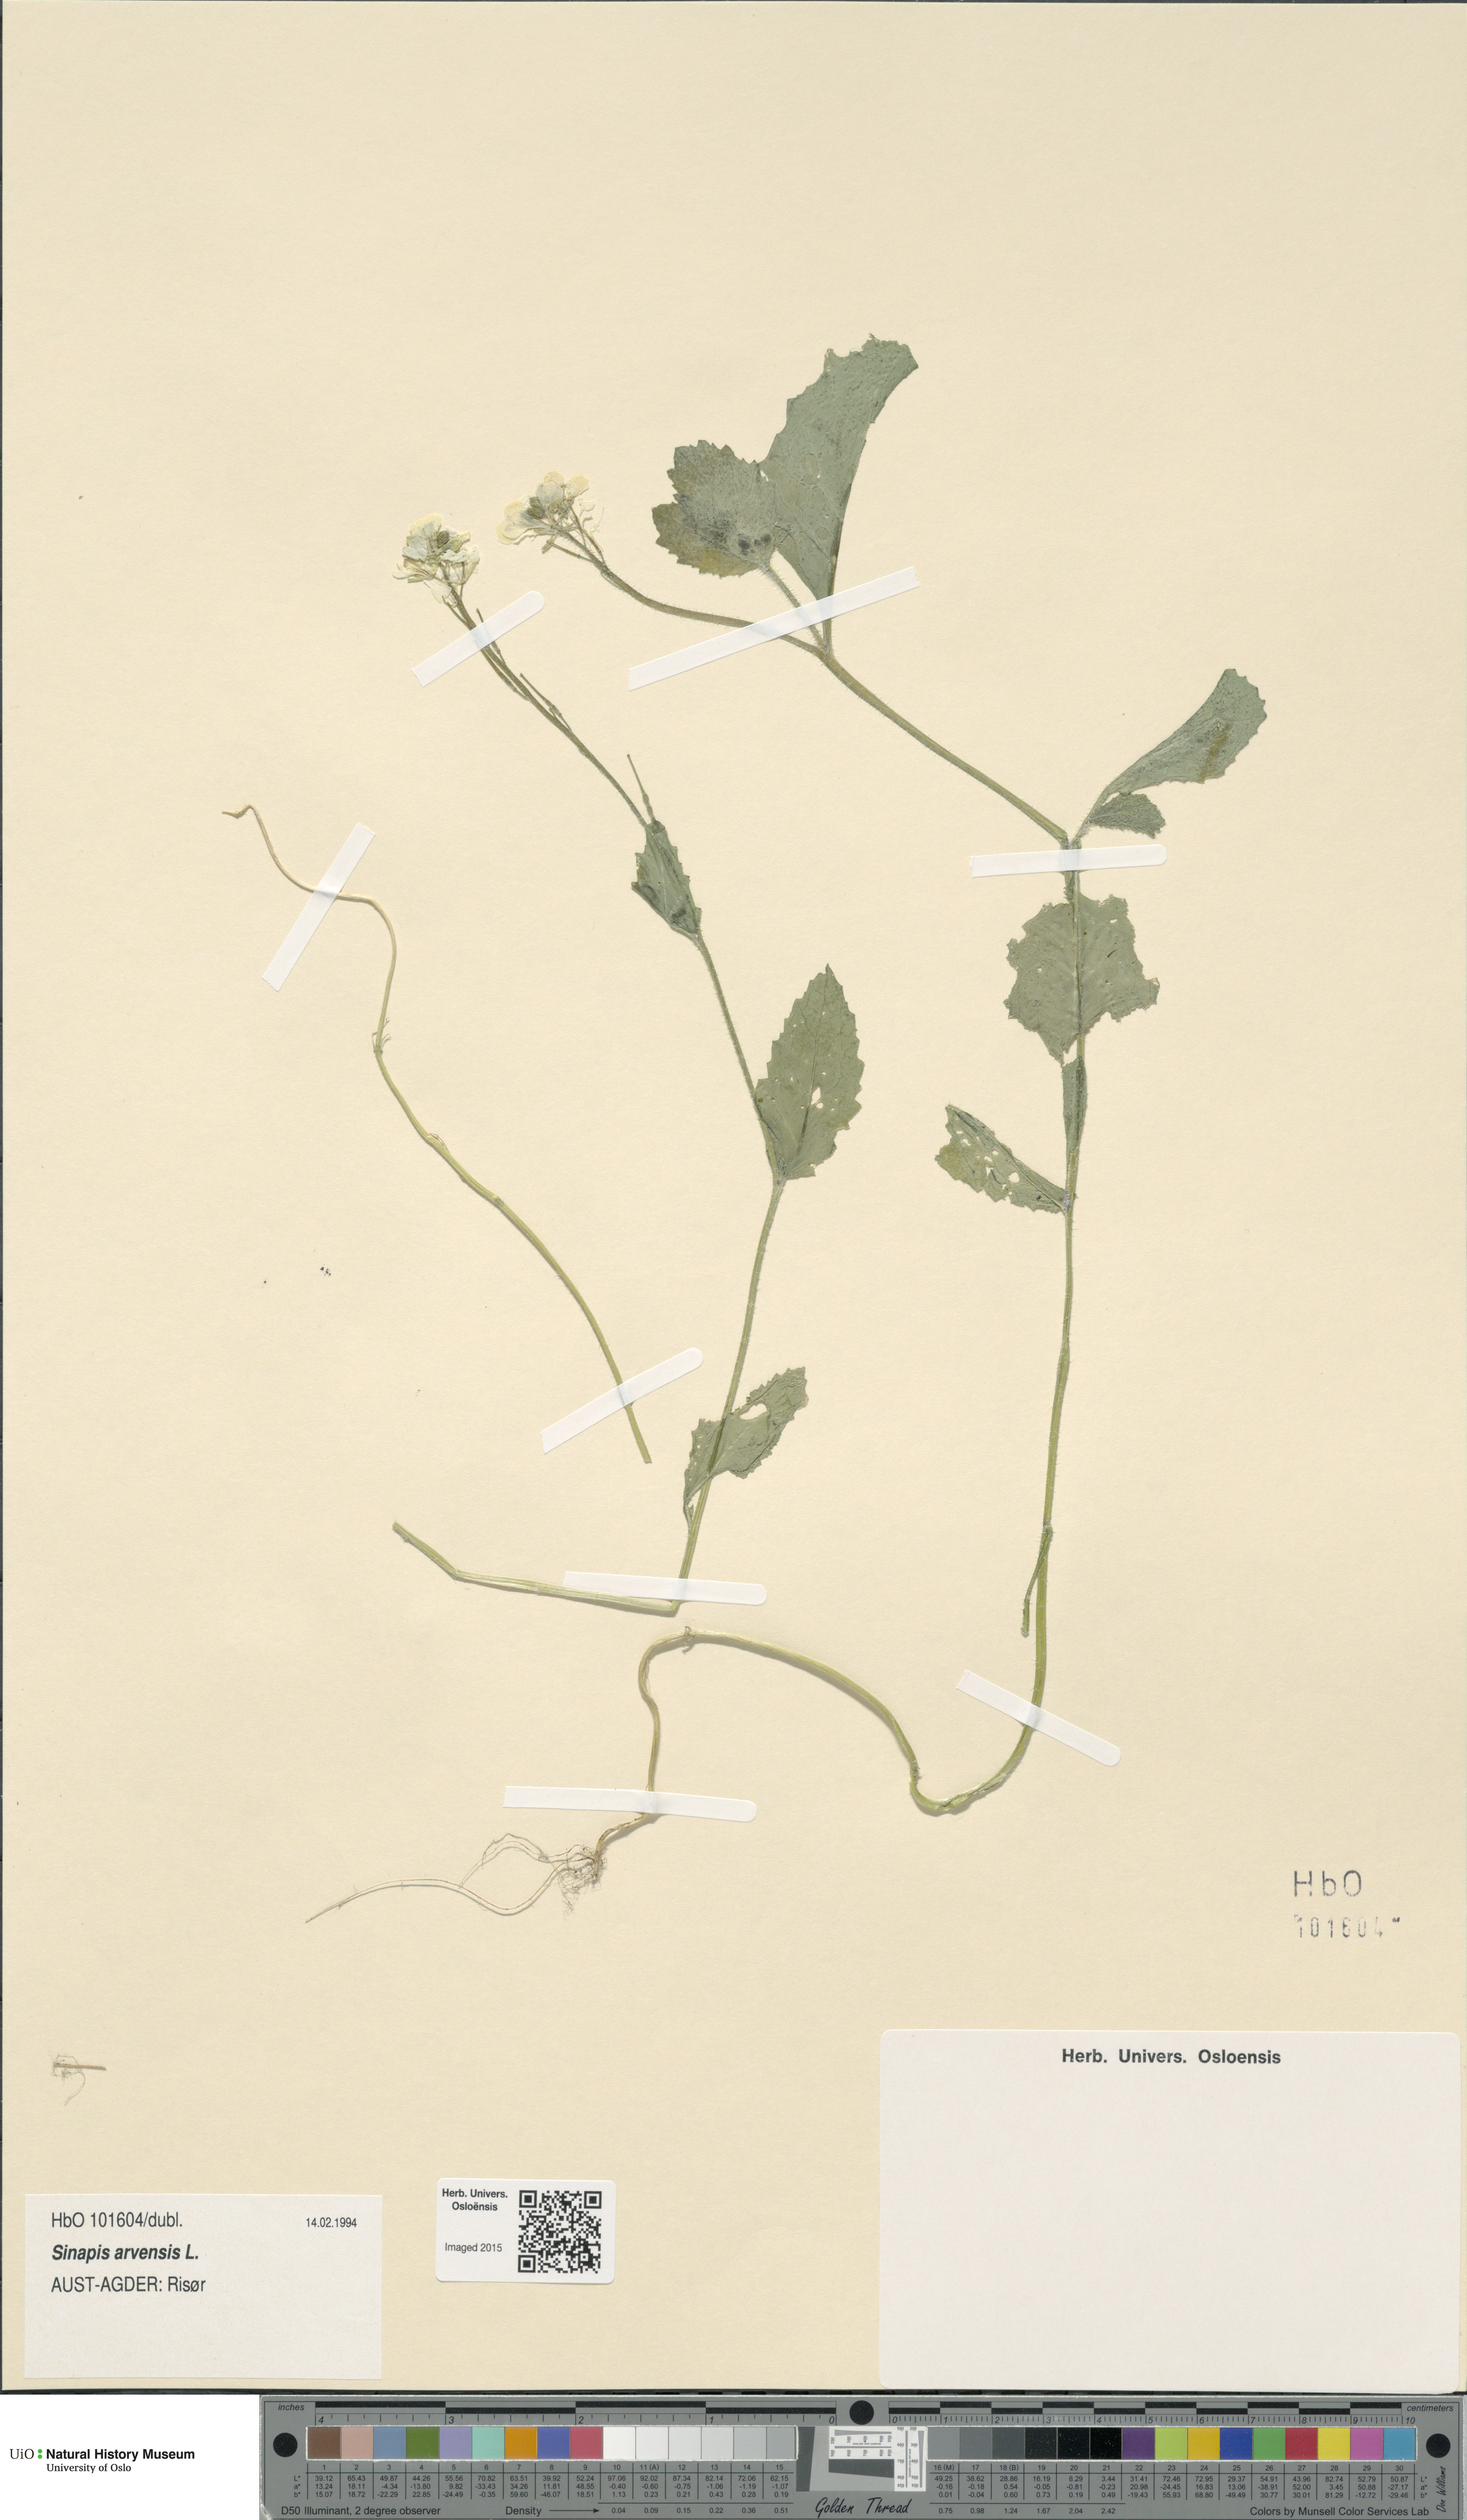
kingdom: Plantae
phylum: Tracheophyta
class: Magnoliopsida
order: Brassicales
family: Brassicaceae
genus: Sinapis
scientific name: Sinapis arvensis
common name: Charlock
